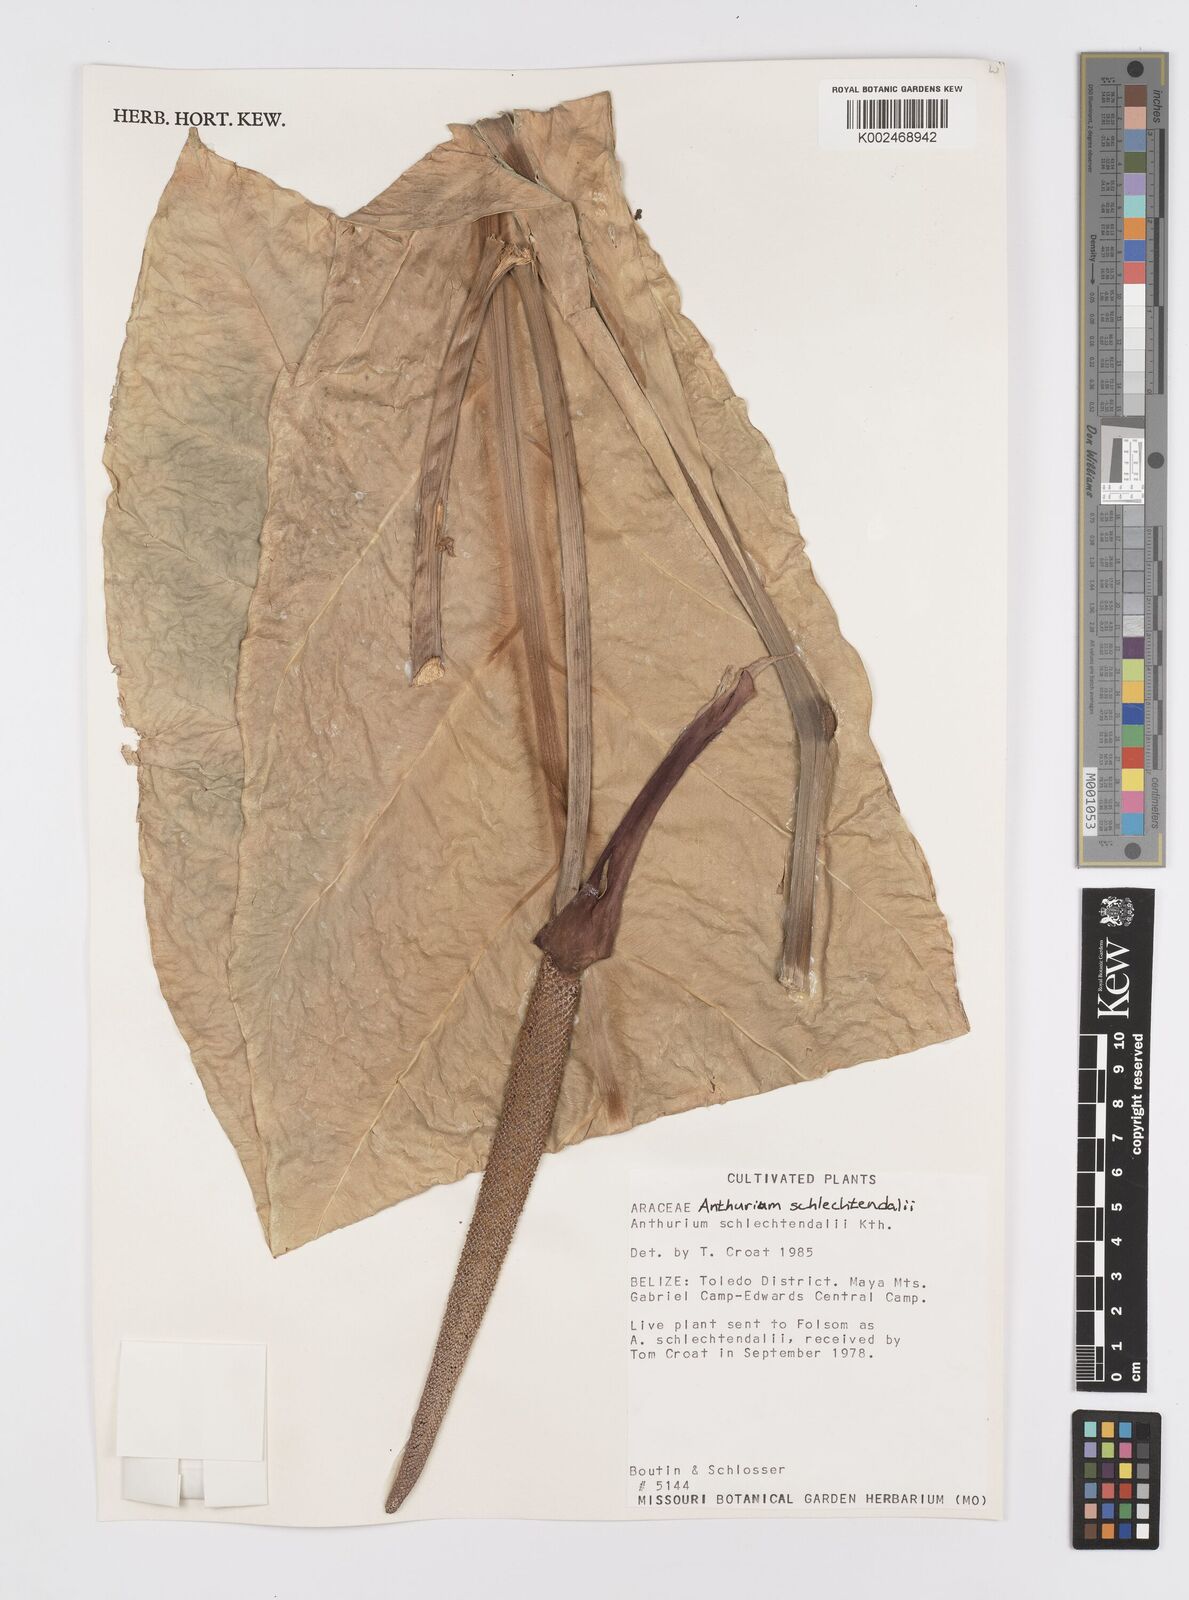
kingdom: Plantae
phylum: Tracheophyta
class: Liliopsida
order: Alismatales
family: Araceae
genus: Anthurium
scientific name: Anthurium schlechtendalii
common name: Laceleaf
